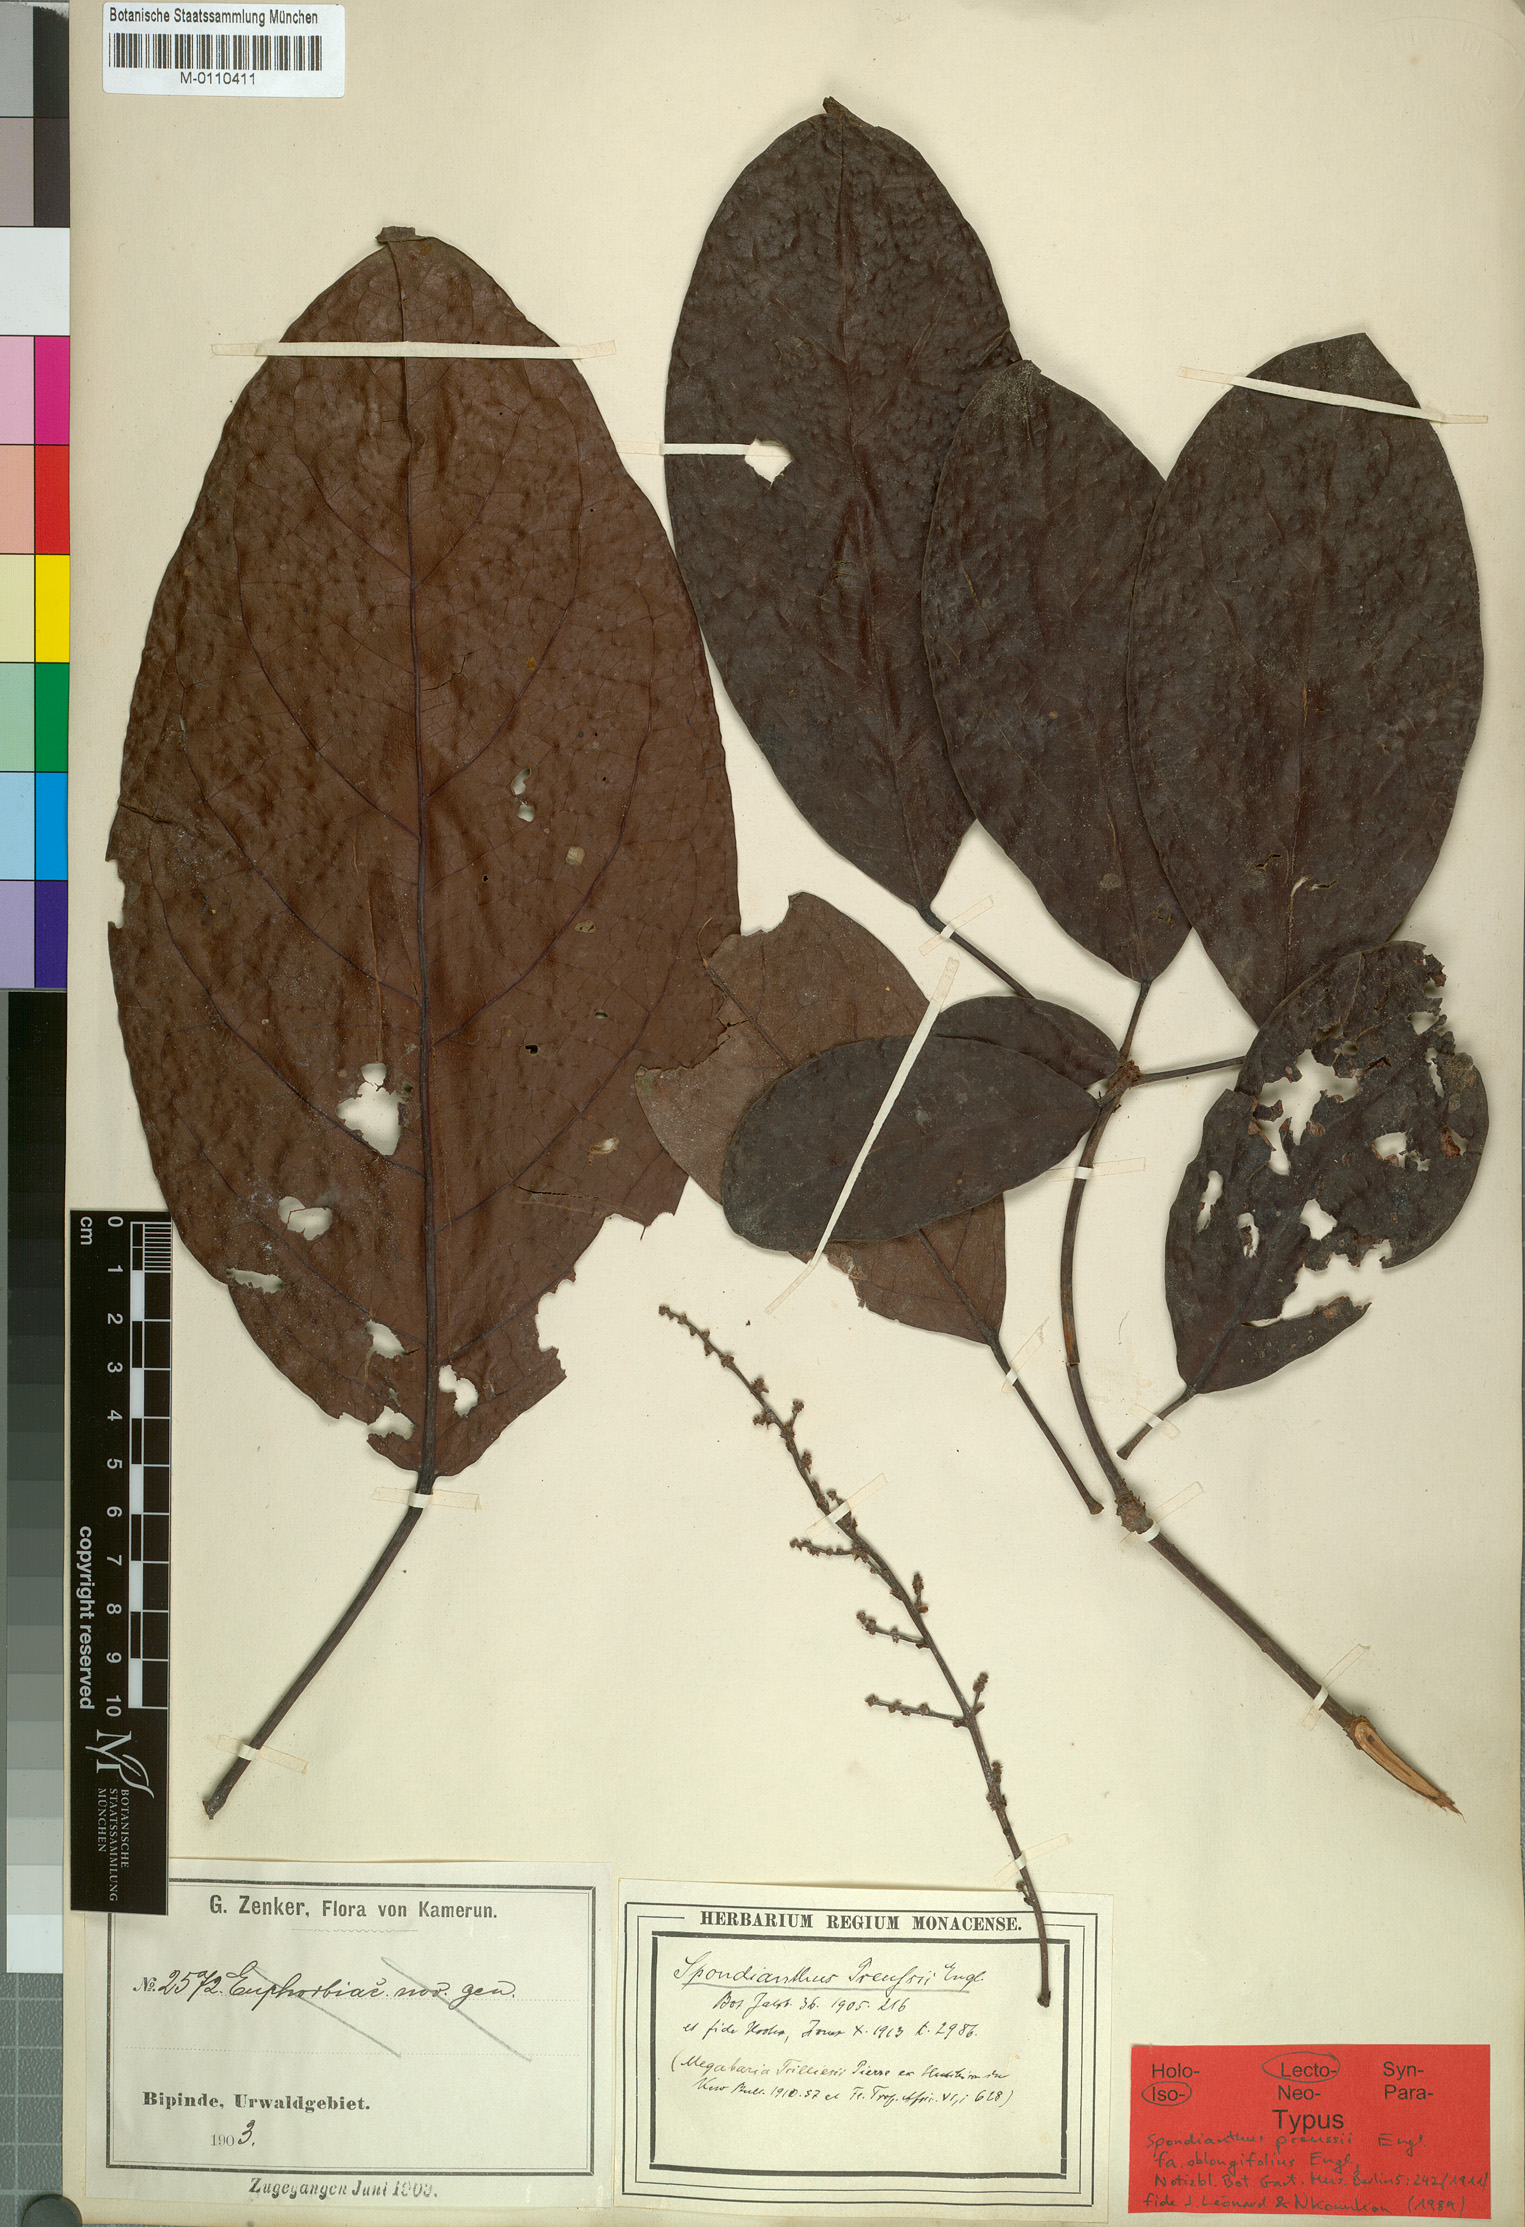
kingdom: Plantae
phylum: Tracheophyta
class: Magnoliopsida
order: Malpighiales
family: Phyllanthaceae
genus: Spondianthus
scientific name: Spondianthus preussii
